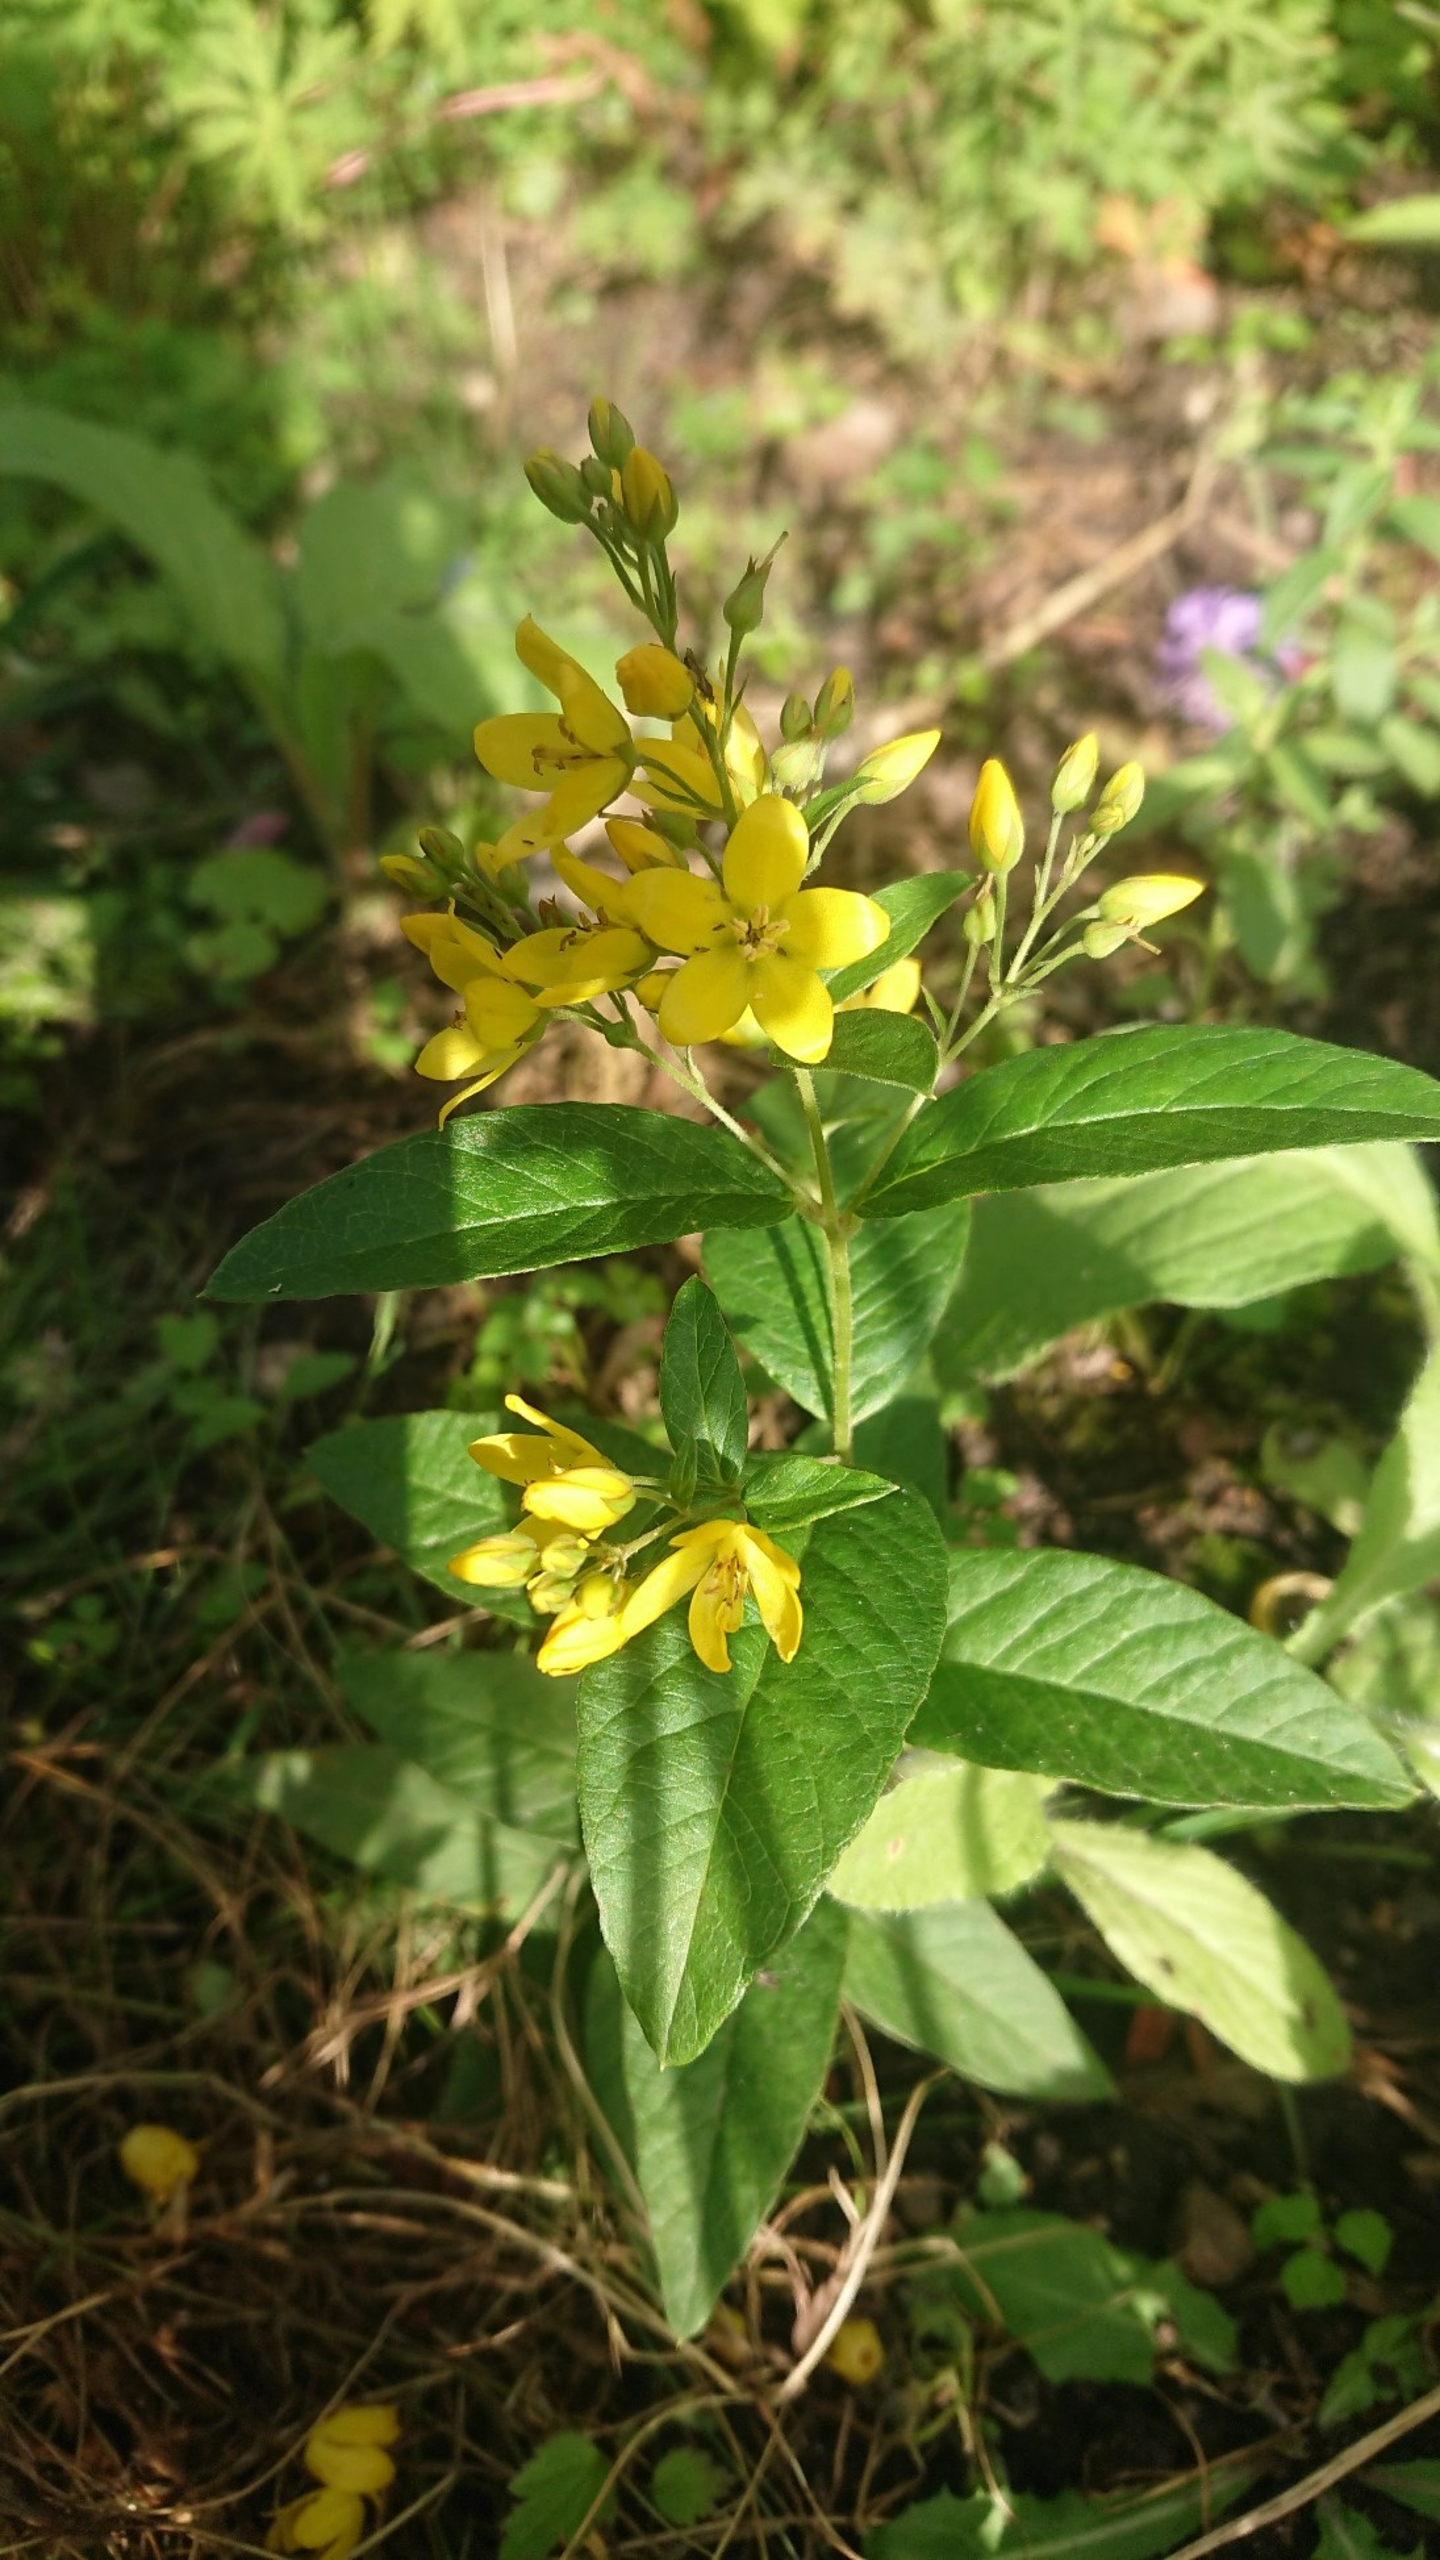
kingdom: Plantae
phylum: Tracheophyta
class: Magnoliopsida
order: Ericales
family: Primulaceae
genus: Lysimachia
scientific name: Lysimachia vulgaris
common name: Almindelig fredløs
